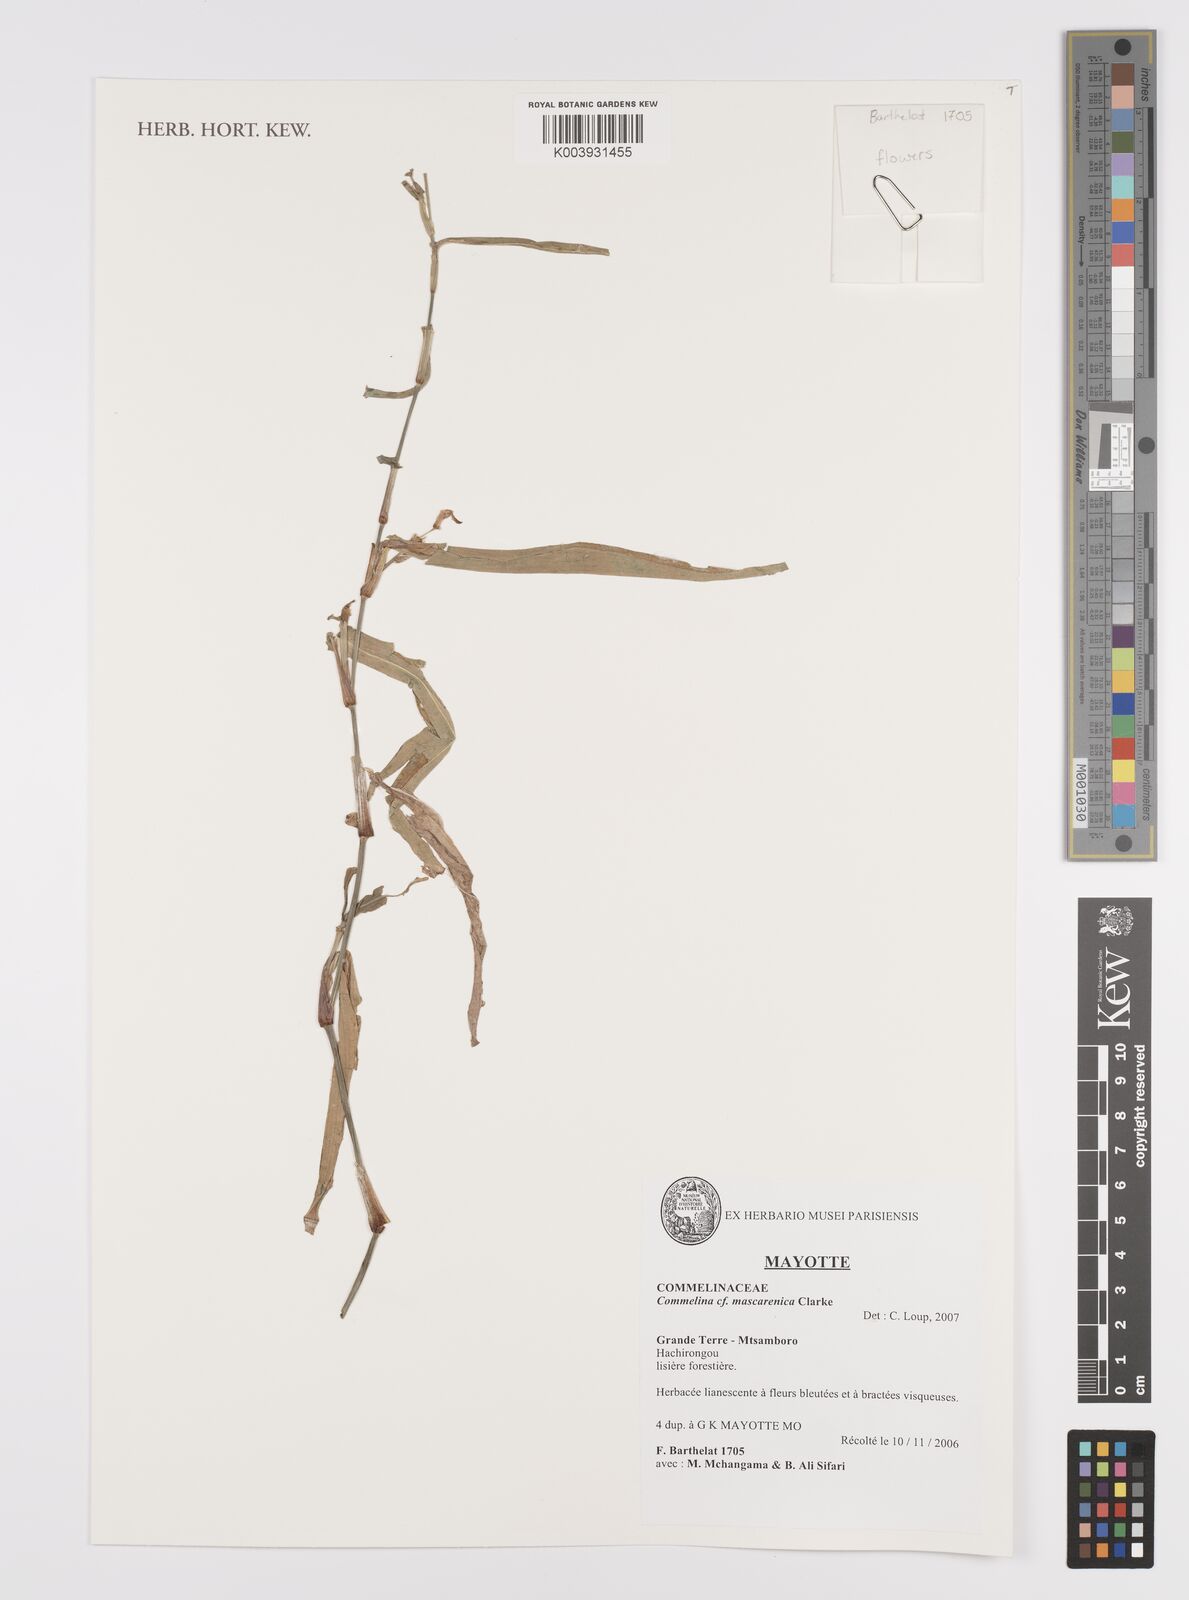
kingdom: Plantae
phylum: Tracheophyta
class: Liliopsida
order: Commelinales
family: Commelinaceae
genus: Commelina
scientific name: Commelina mascarenica
